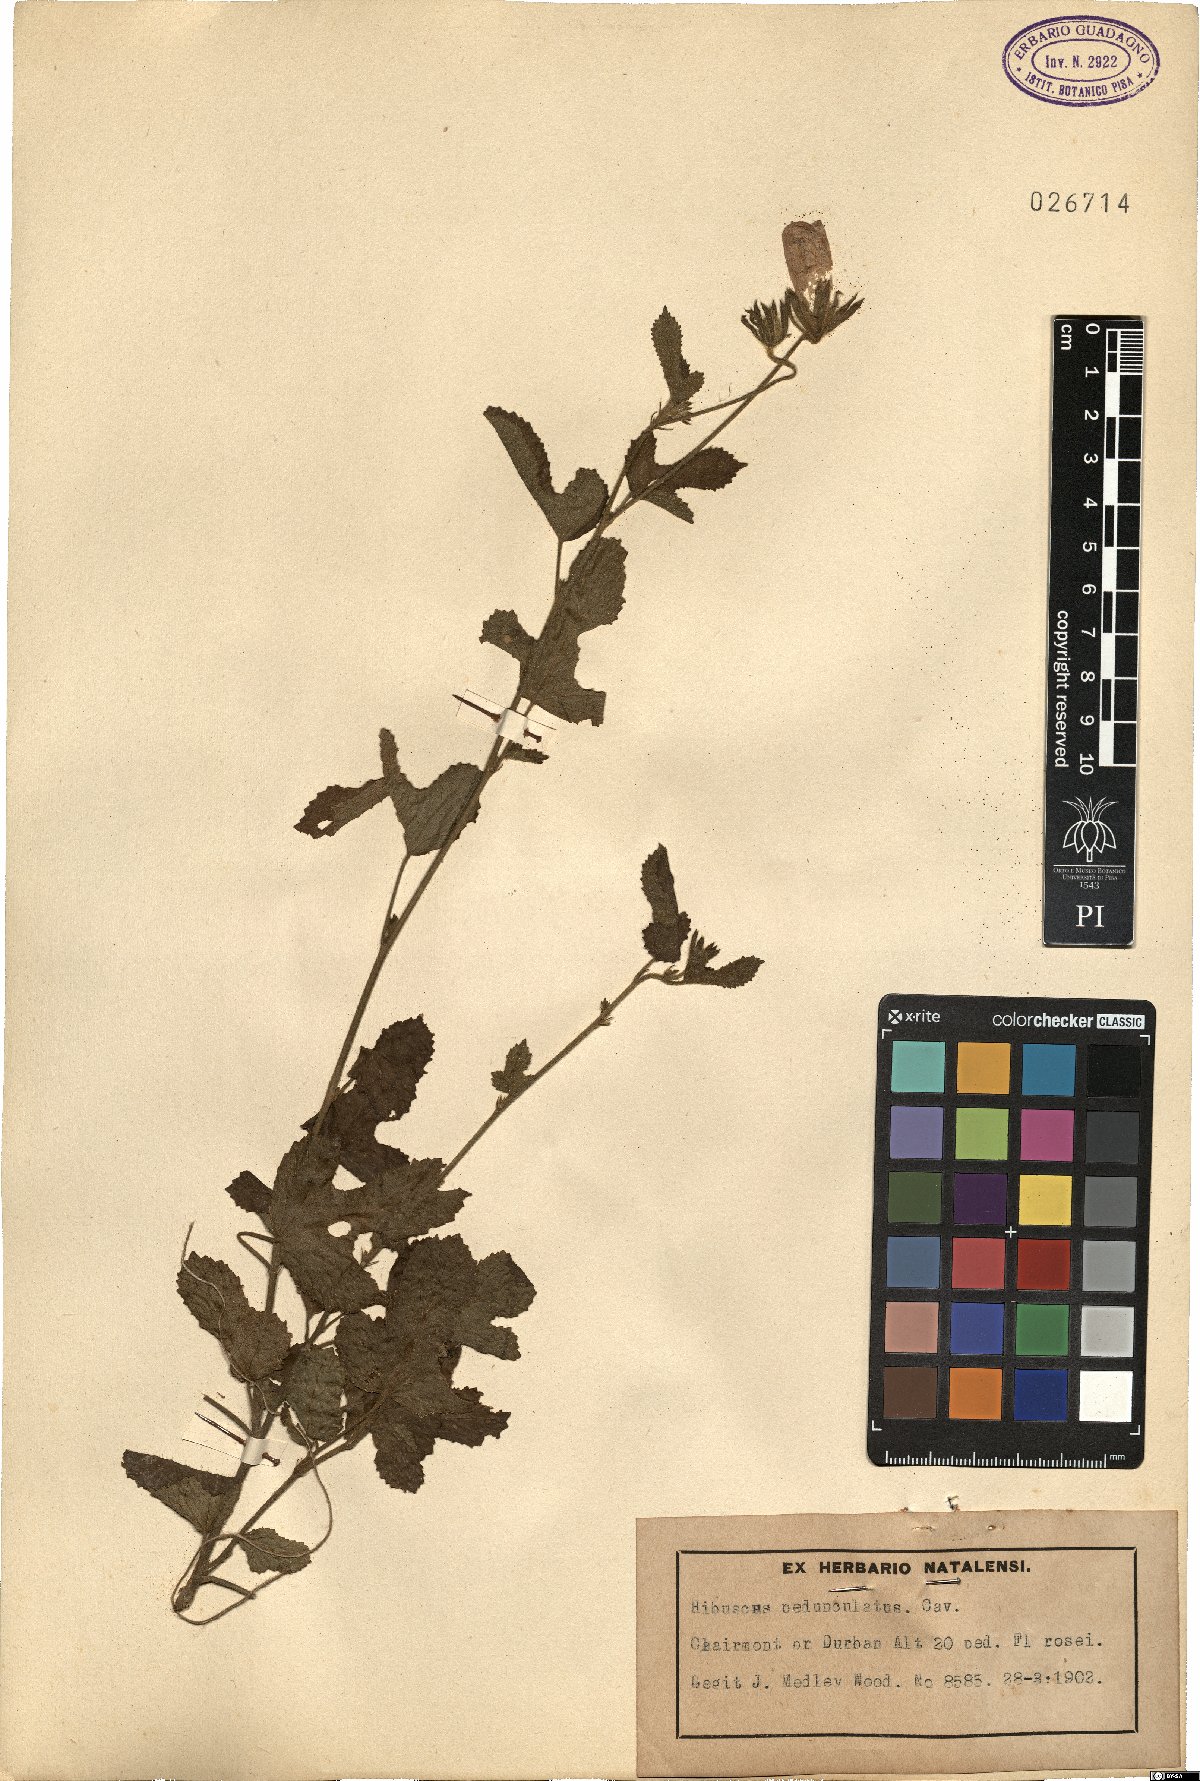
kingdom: Plantae
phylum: Tracheophyta
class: Magnoliopsida
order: Malvales
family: Malvaceae
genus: Hibiscus
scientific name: Hibiscus pedunculatus
